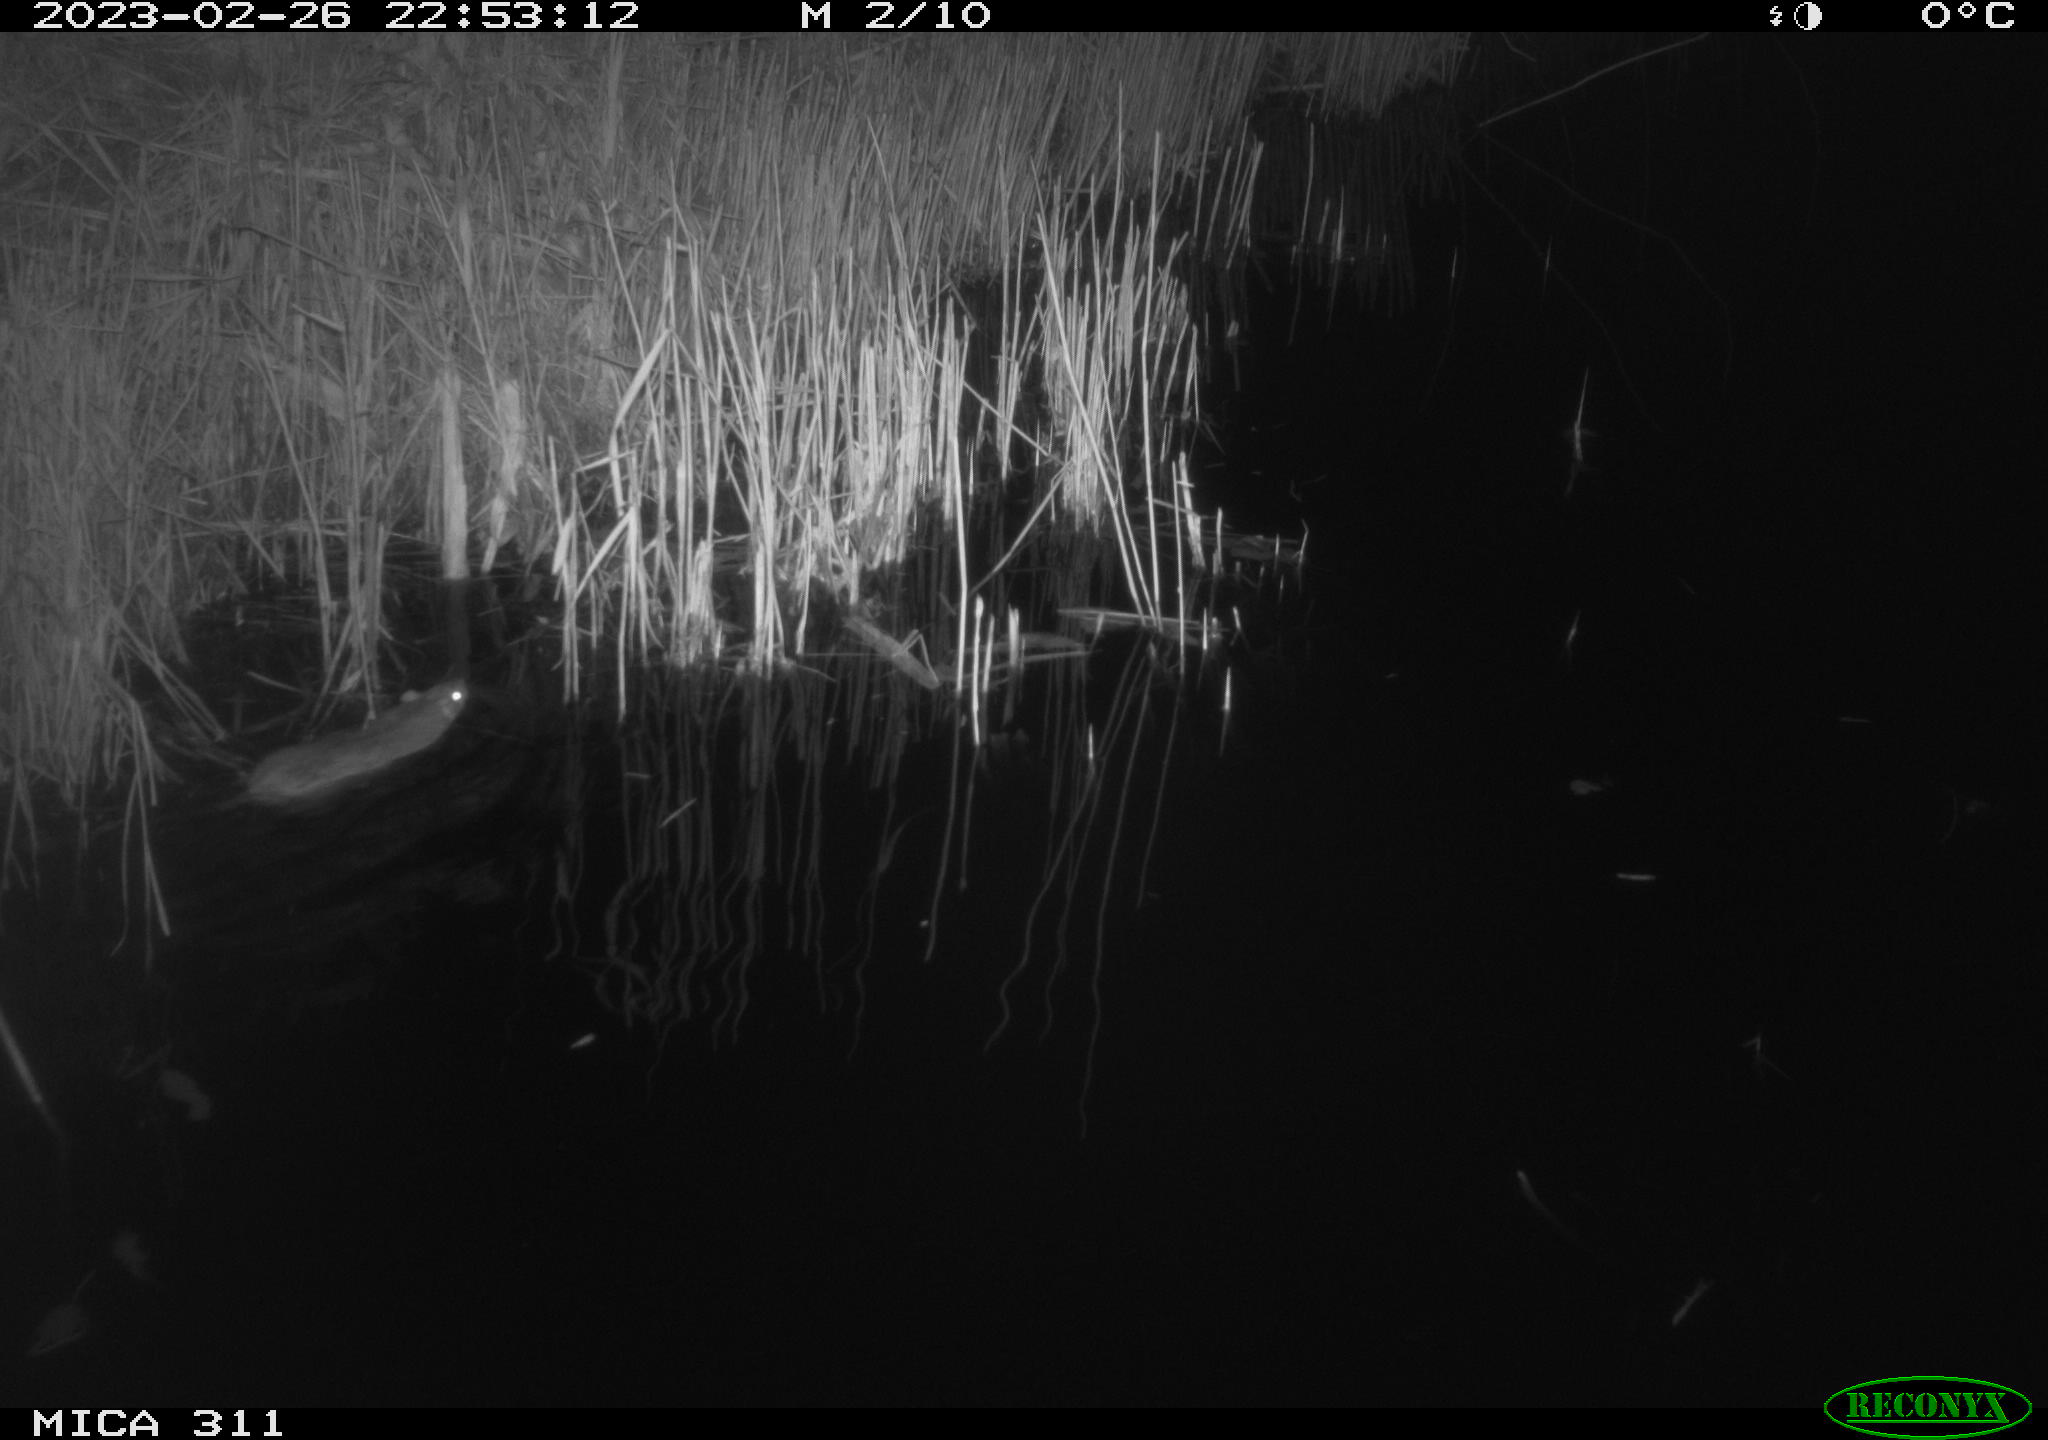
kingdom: Animalia
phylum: Chordata
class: Mammalia
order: Rodentia
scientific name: Rodentia
